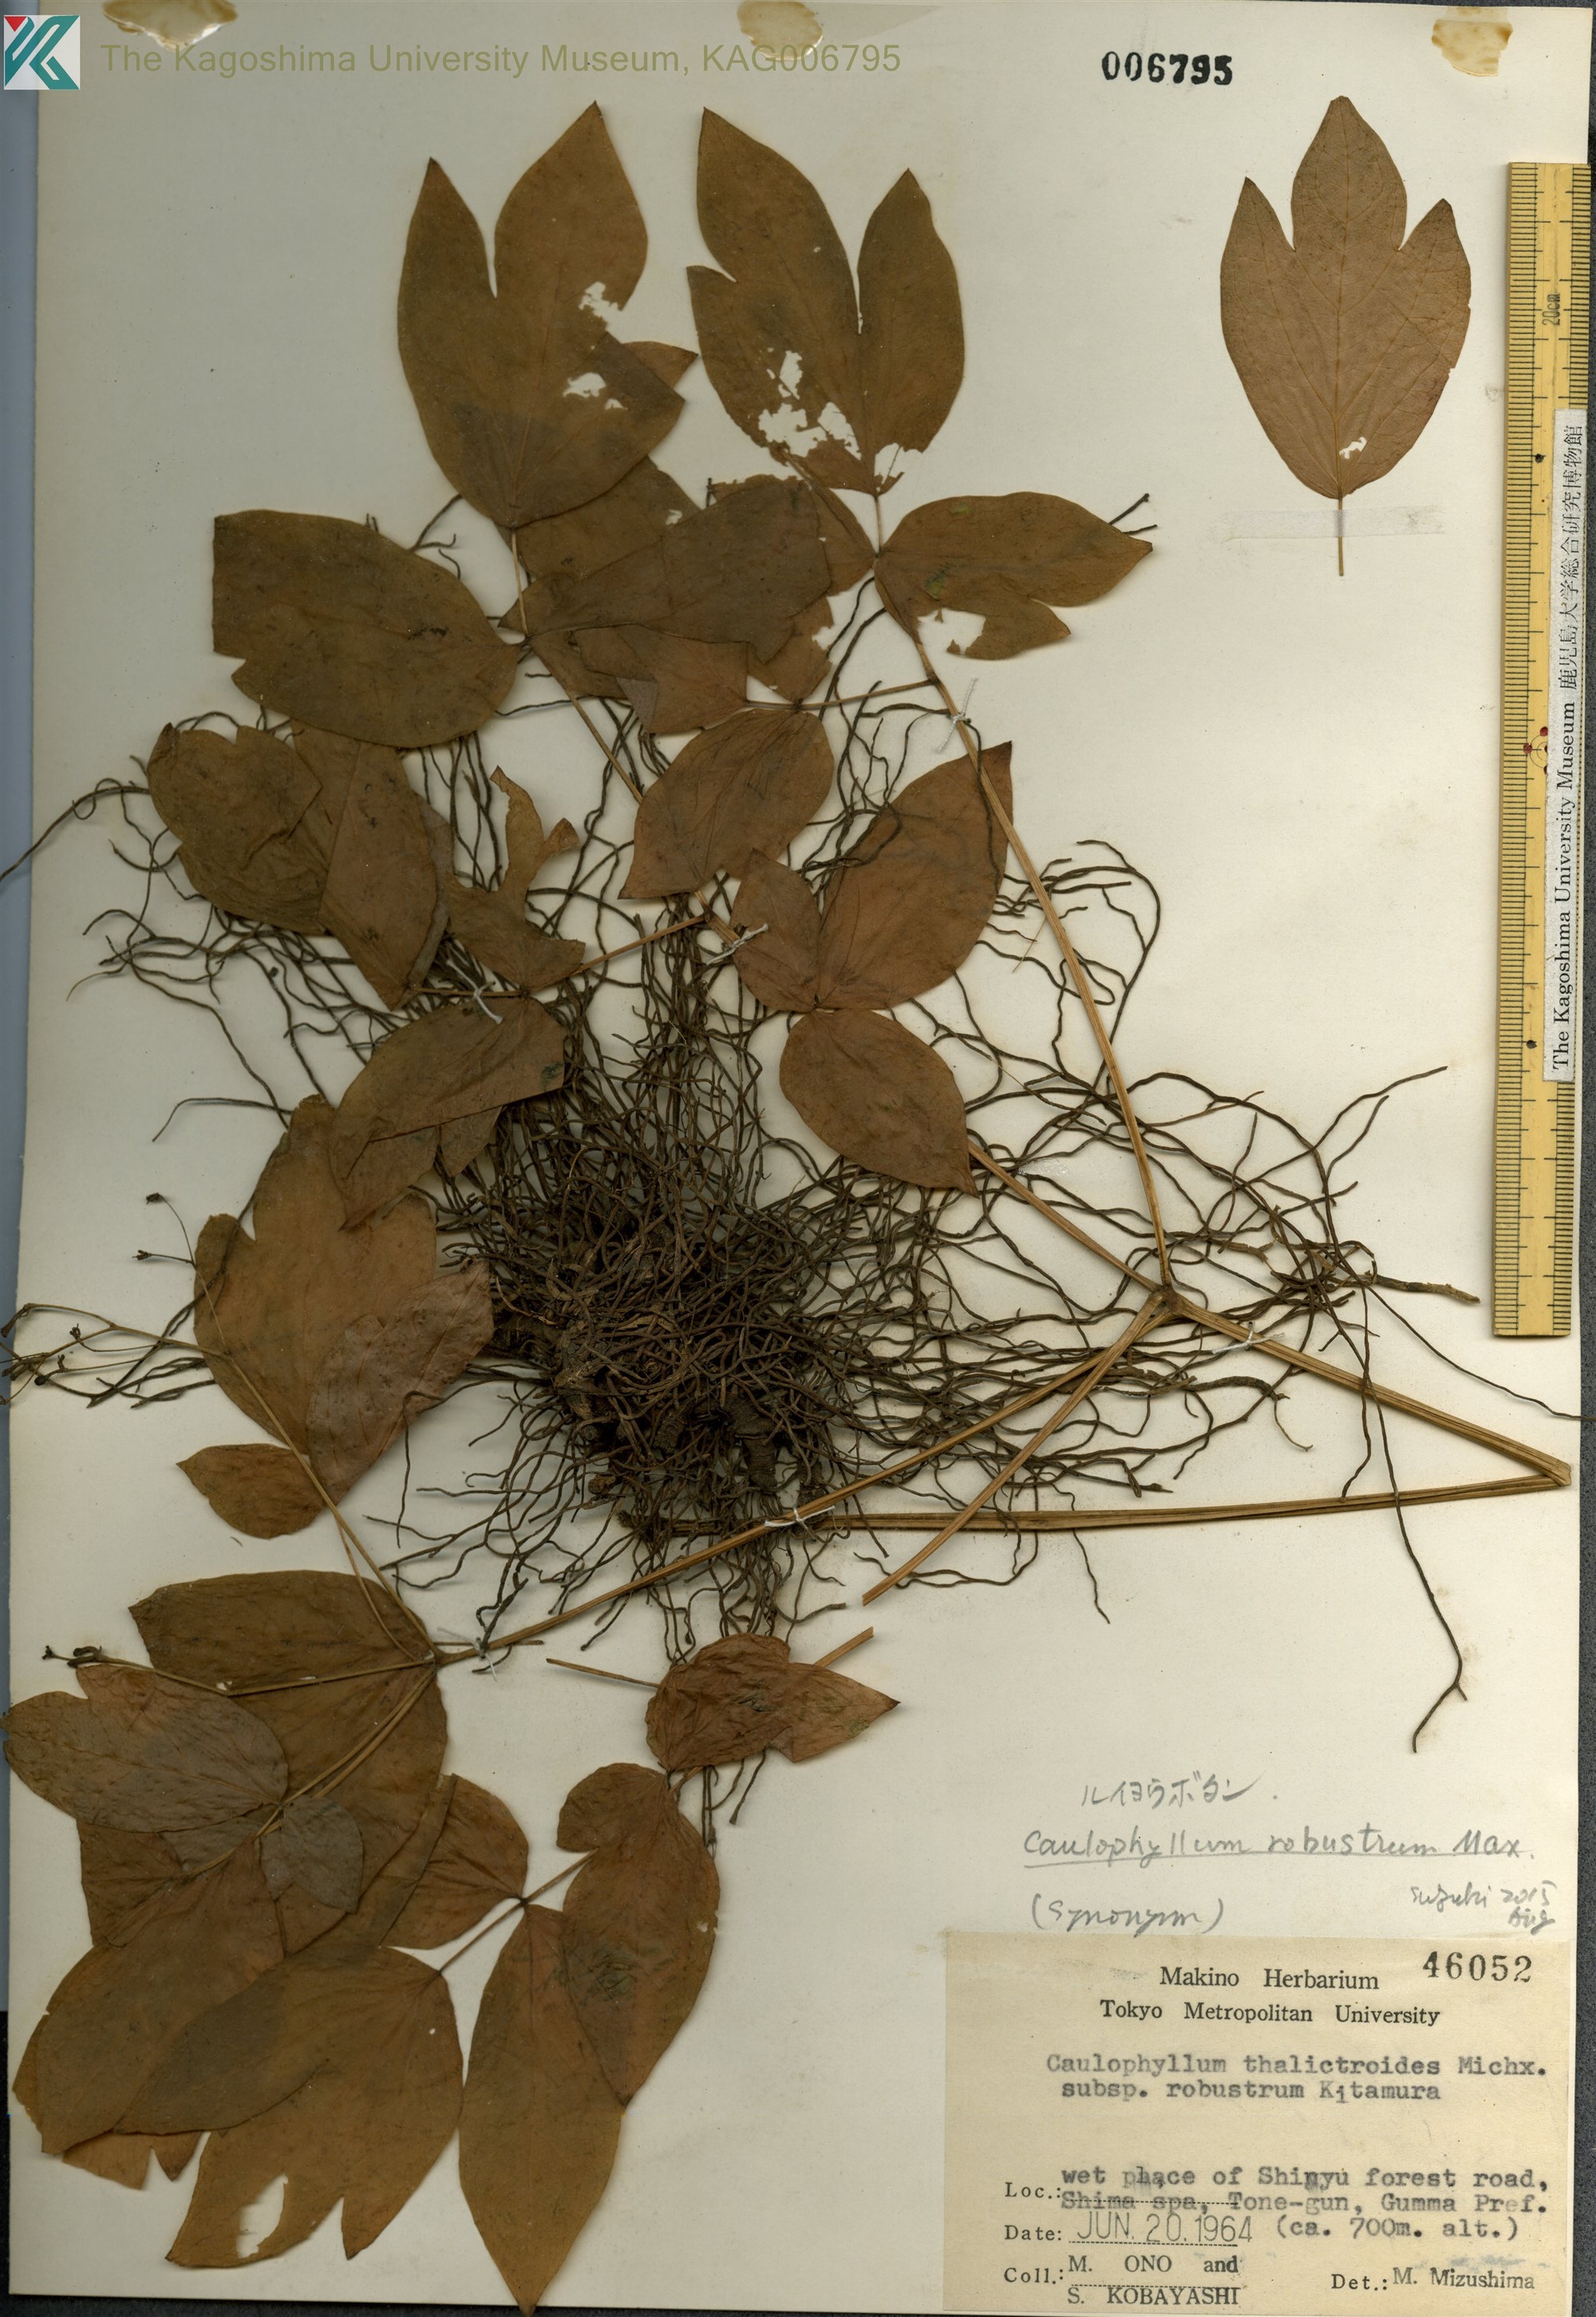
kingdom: Plantae
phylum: Tracheophyta
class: Magnoliopsida
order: Ranunculales
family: Berberidaceae
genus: Caulophyllum
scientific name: Caulophyllum robustum
